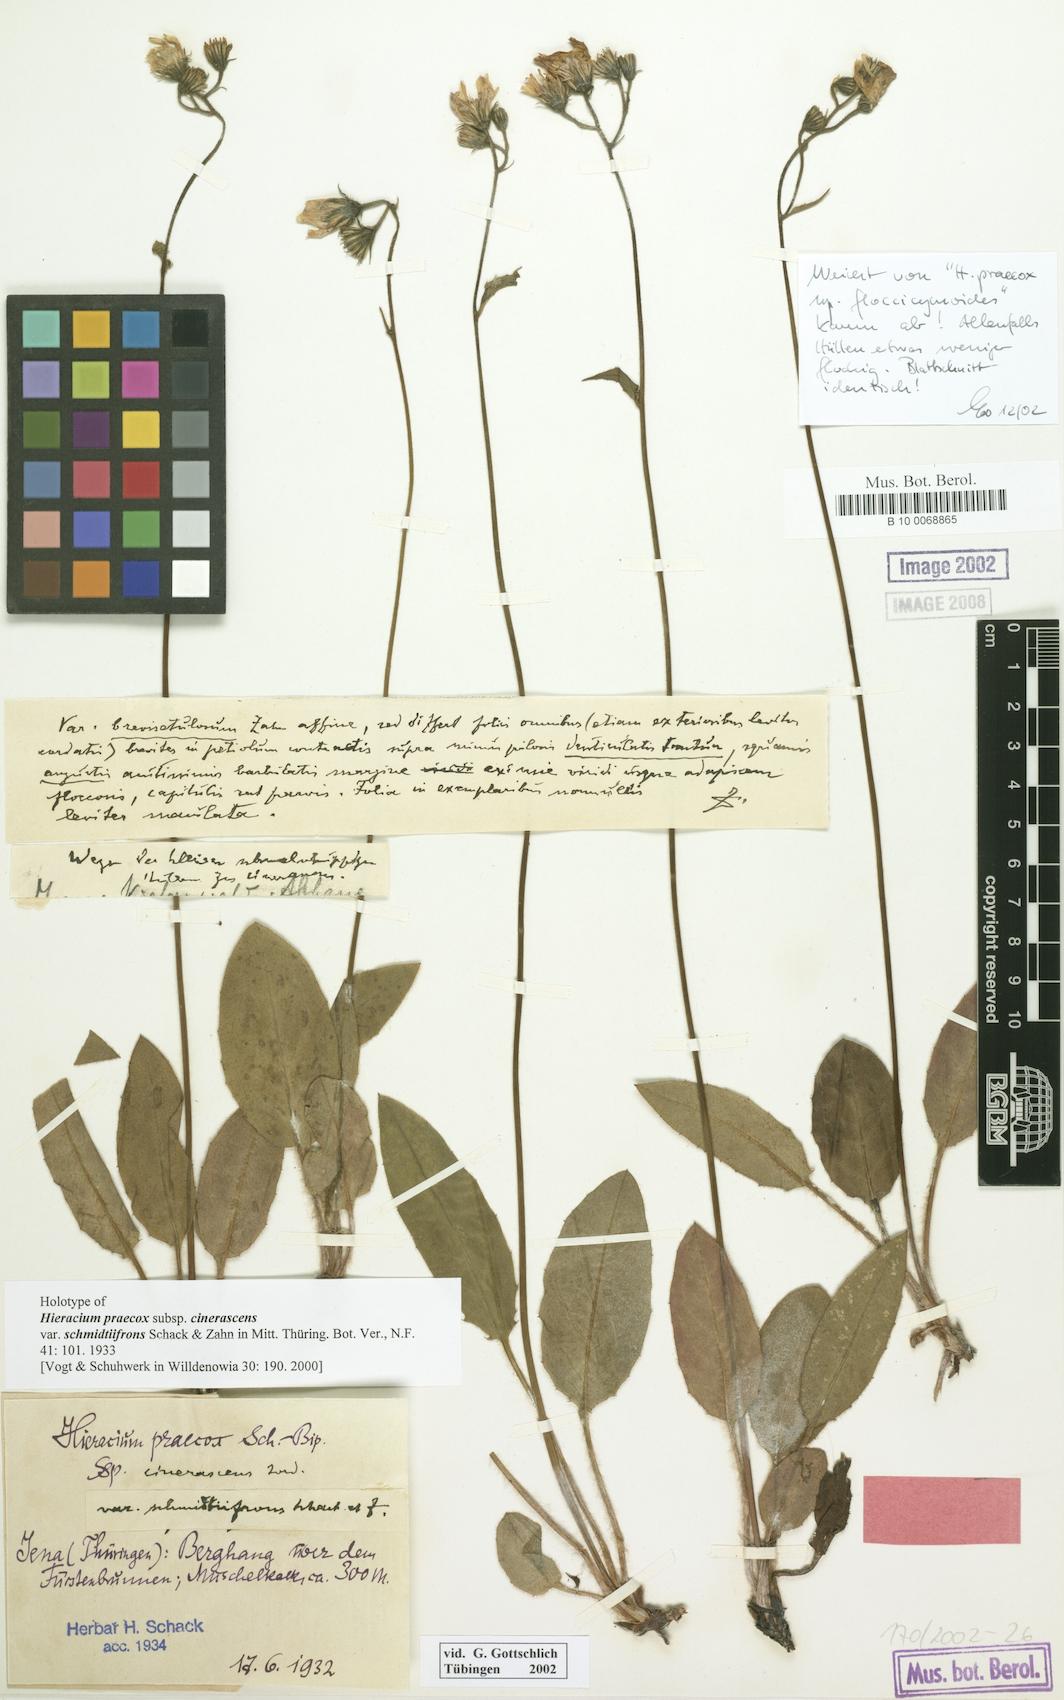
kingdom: Plantae
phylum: Tracheophyta
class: Magnoliopsida
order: Asterales
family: Asteraceae
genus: Hieracium
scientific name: Hieracium praecox
